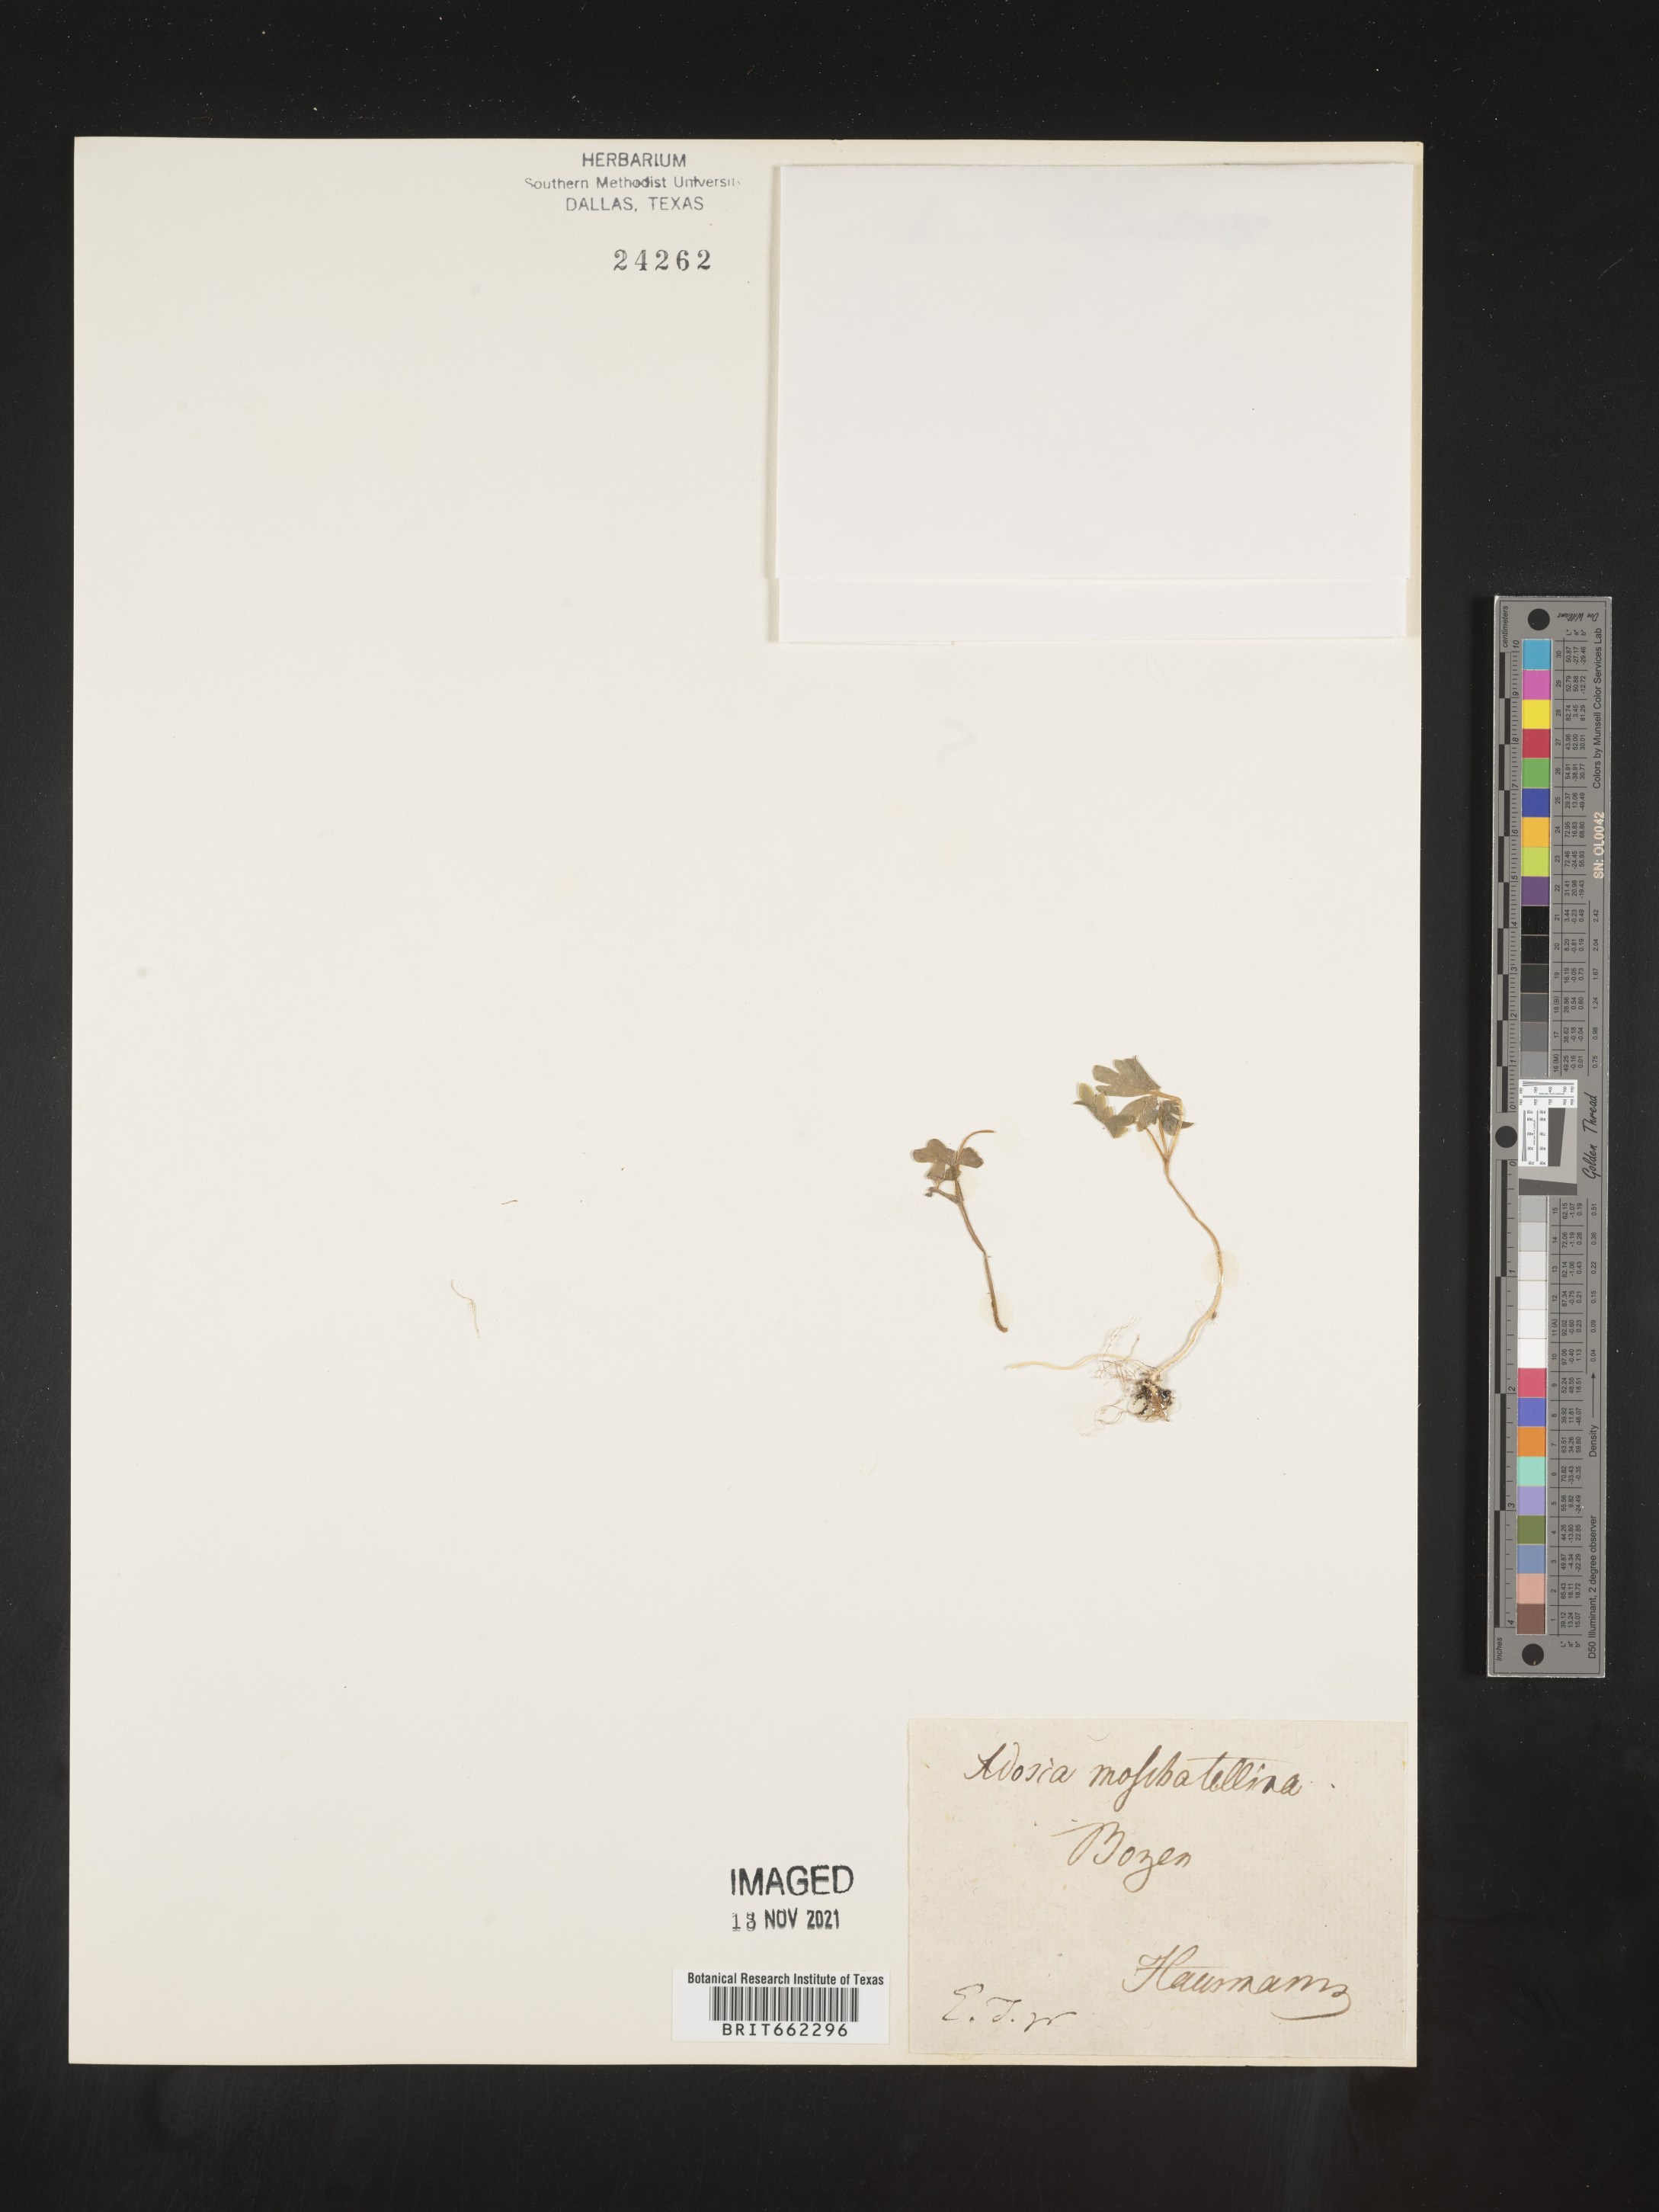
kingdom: Plantae
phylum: Tracheophyta
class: Magnoliopsida
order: Dipsacales
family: Viburnaceae
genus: Adoxa
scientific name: Adoxa
